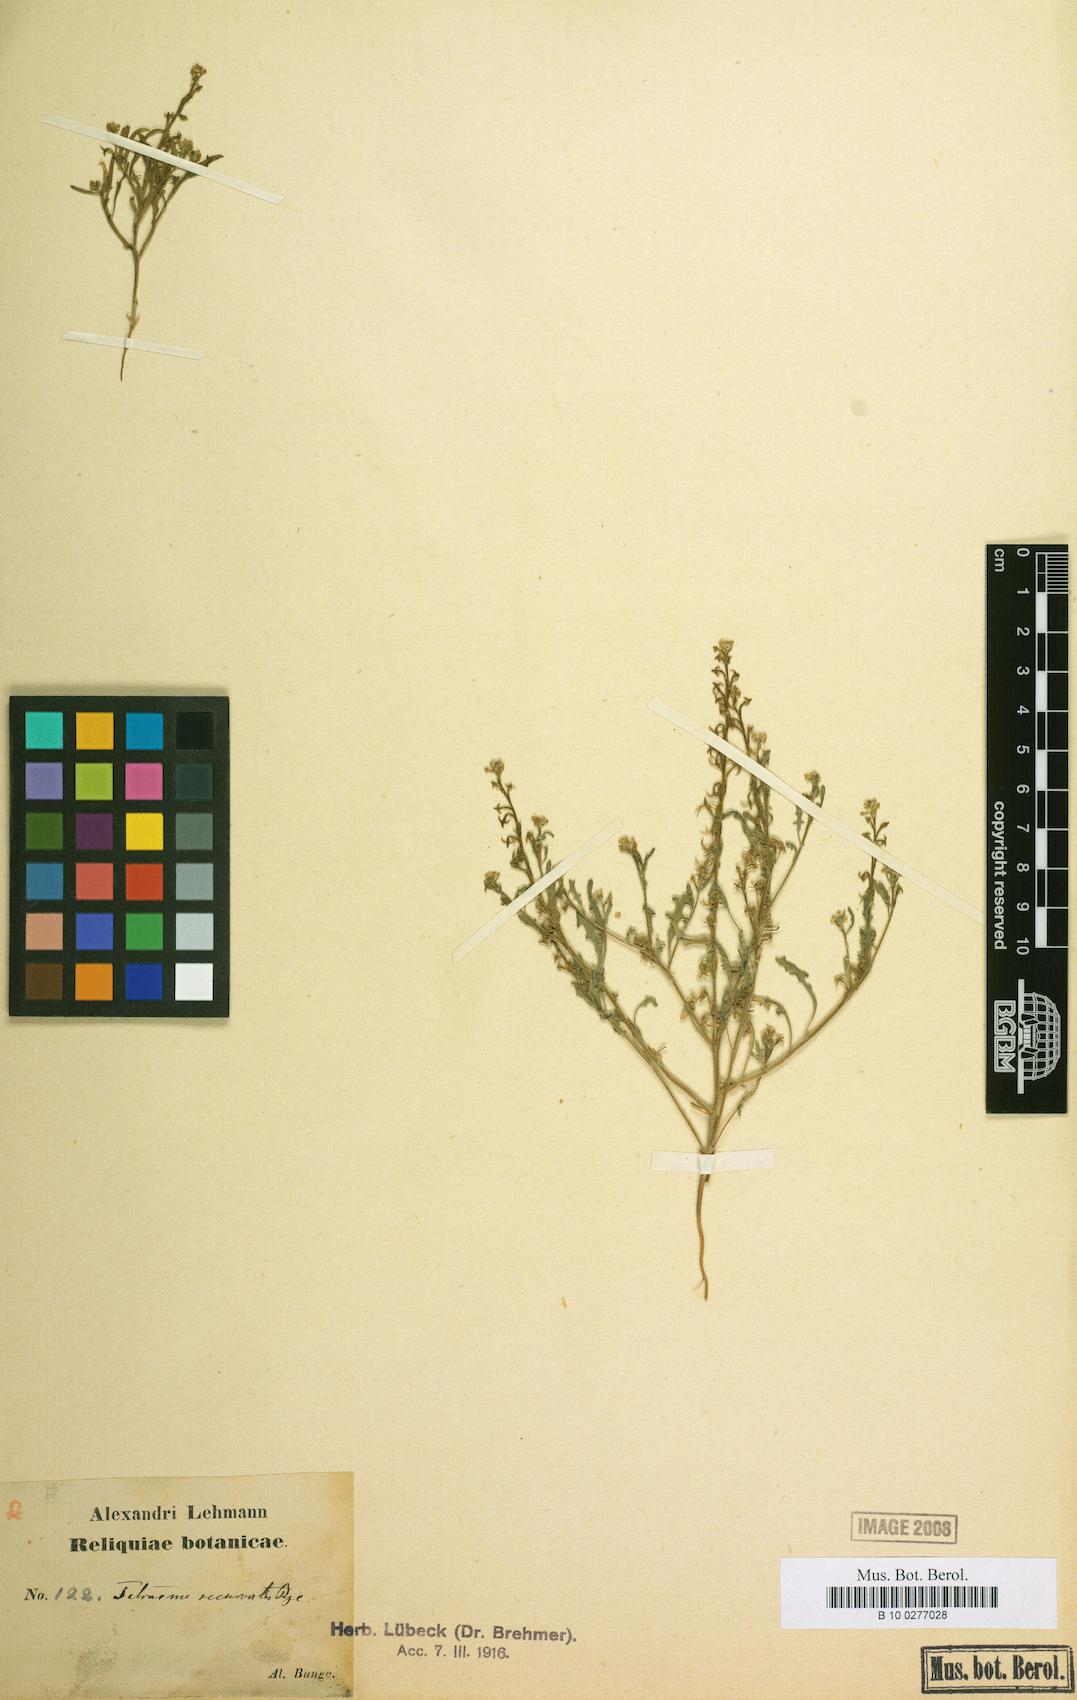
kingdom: Plantae
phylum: Tracheophyta
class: Magnoliopsida
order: Brassicales
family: Brassicaceae
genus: Tetracme
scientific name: Tetracme recurvata
